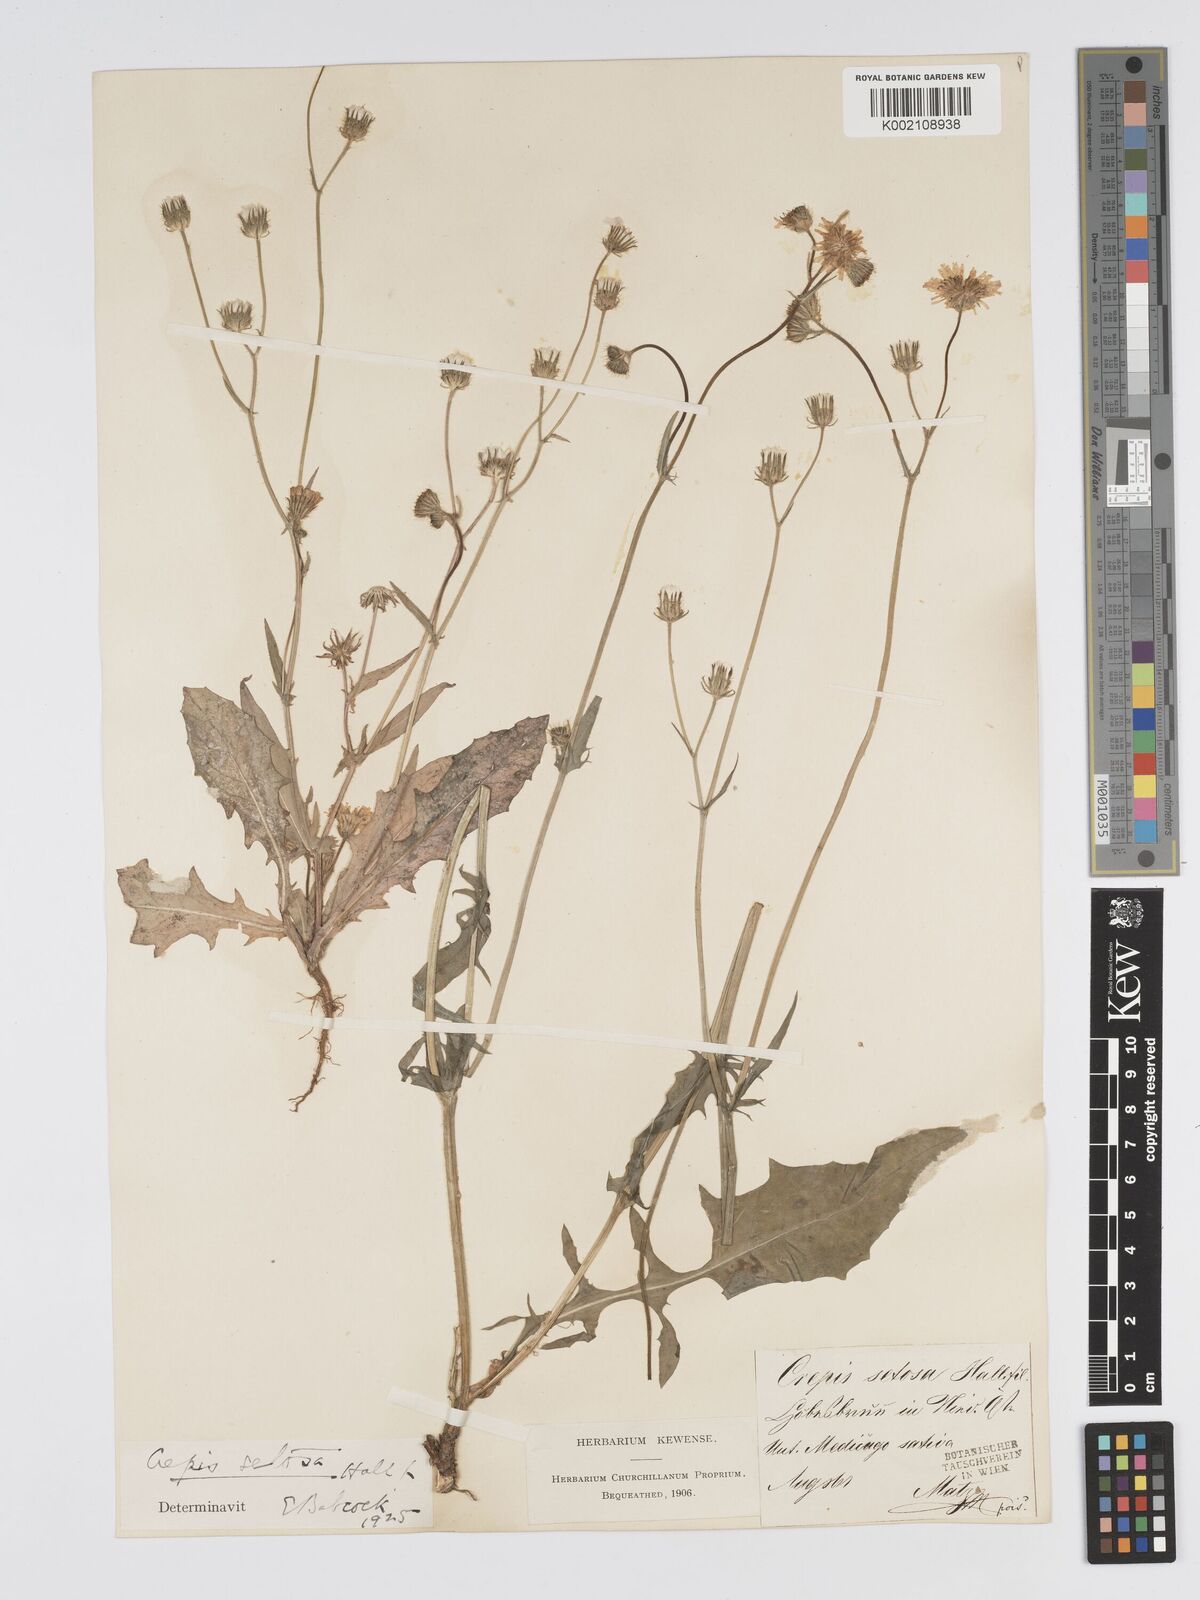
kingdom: Plantae
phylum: Tracheophyta
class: Magnoliopsida
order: Asterales
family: Asteraceae
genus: Crepis
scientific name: Crepis setosa
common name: Bristly hawk's-beard
